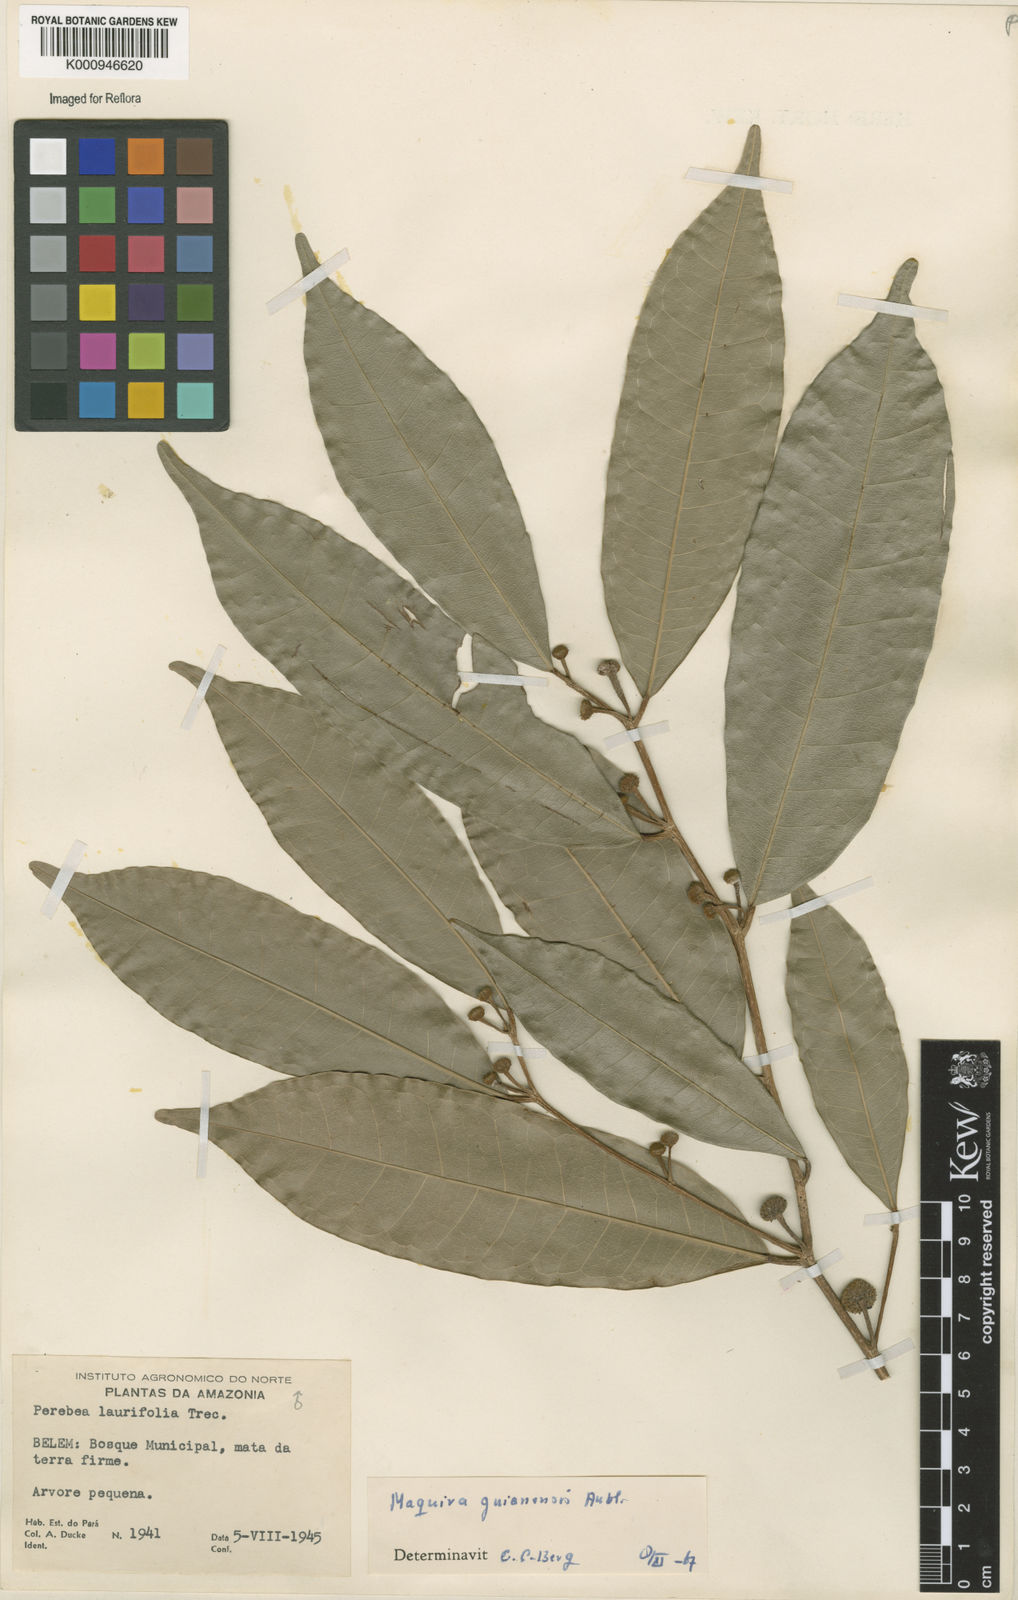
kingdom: Plantae
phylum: Tracheophyta
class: Magnoliopsida
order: Rosales
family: Moraceae
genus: Maquira
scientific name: Maquira guianensis
